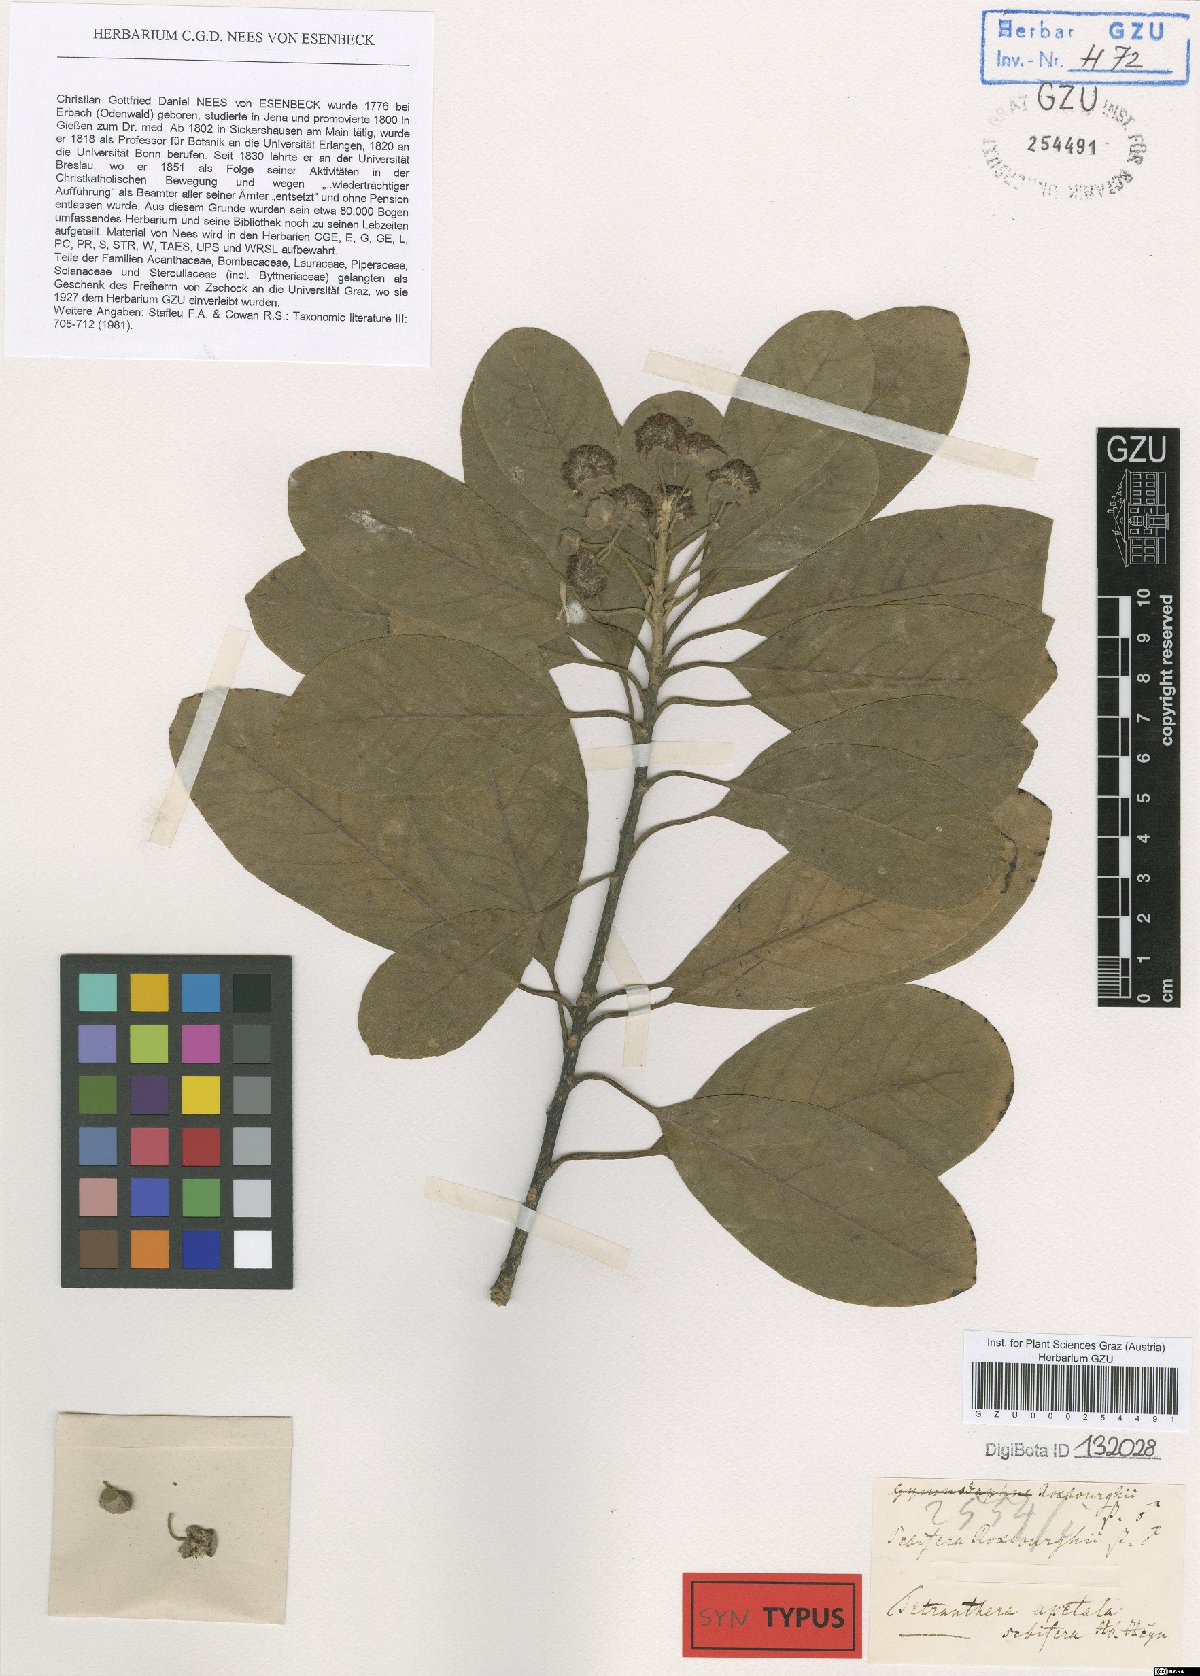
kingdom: Plantae
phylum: Tracheophyta
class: Magnoliopsida
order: Laurales
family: Lauraceae
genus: Litsea
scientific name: Litsea glutinosa
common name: Indian-laurel
